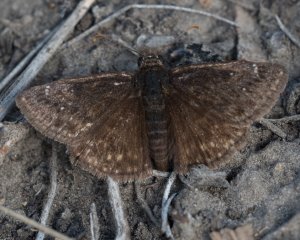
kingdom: Animalia
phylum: Arthropoda
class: Insecta
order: Lepidoptera
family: Hesperiidae
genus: Erynnis
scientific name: Erynnis afranius
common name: Afranius Duskywing
